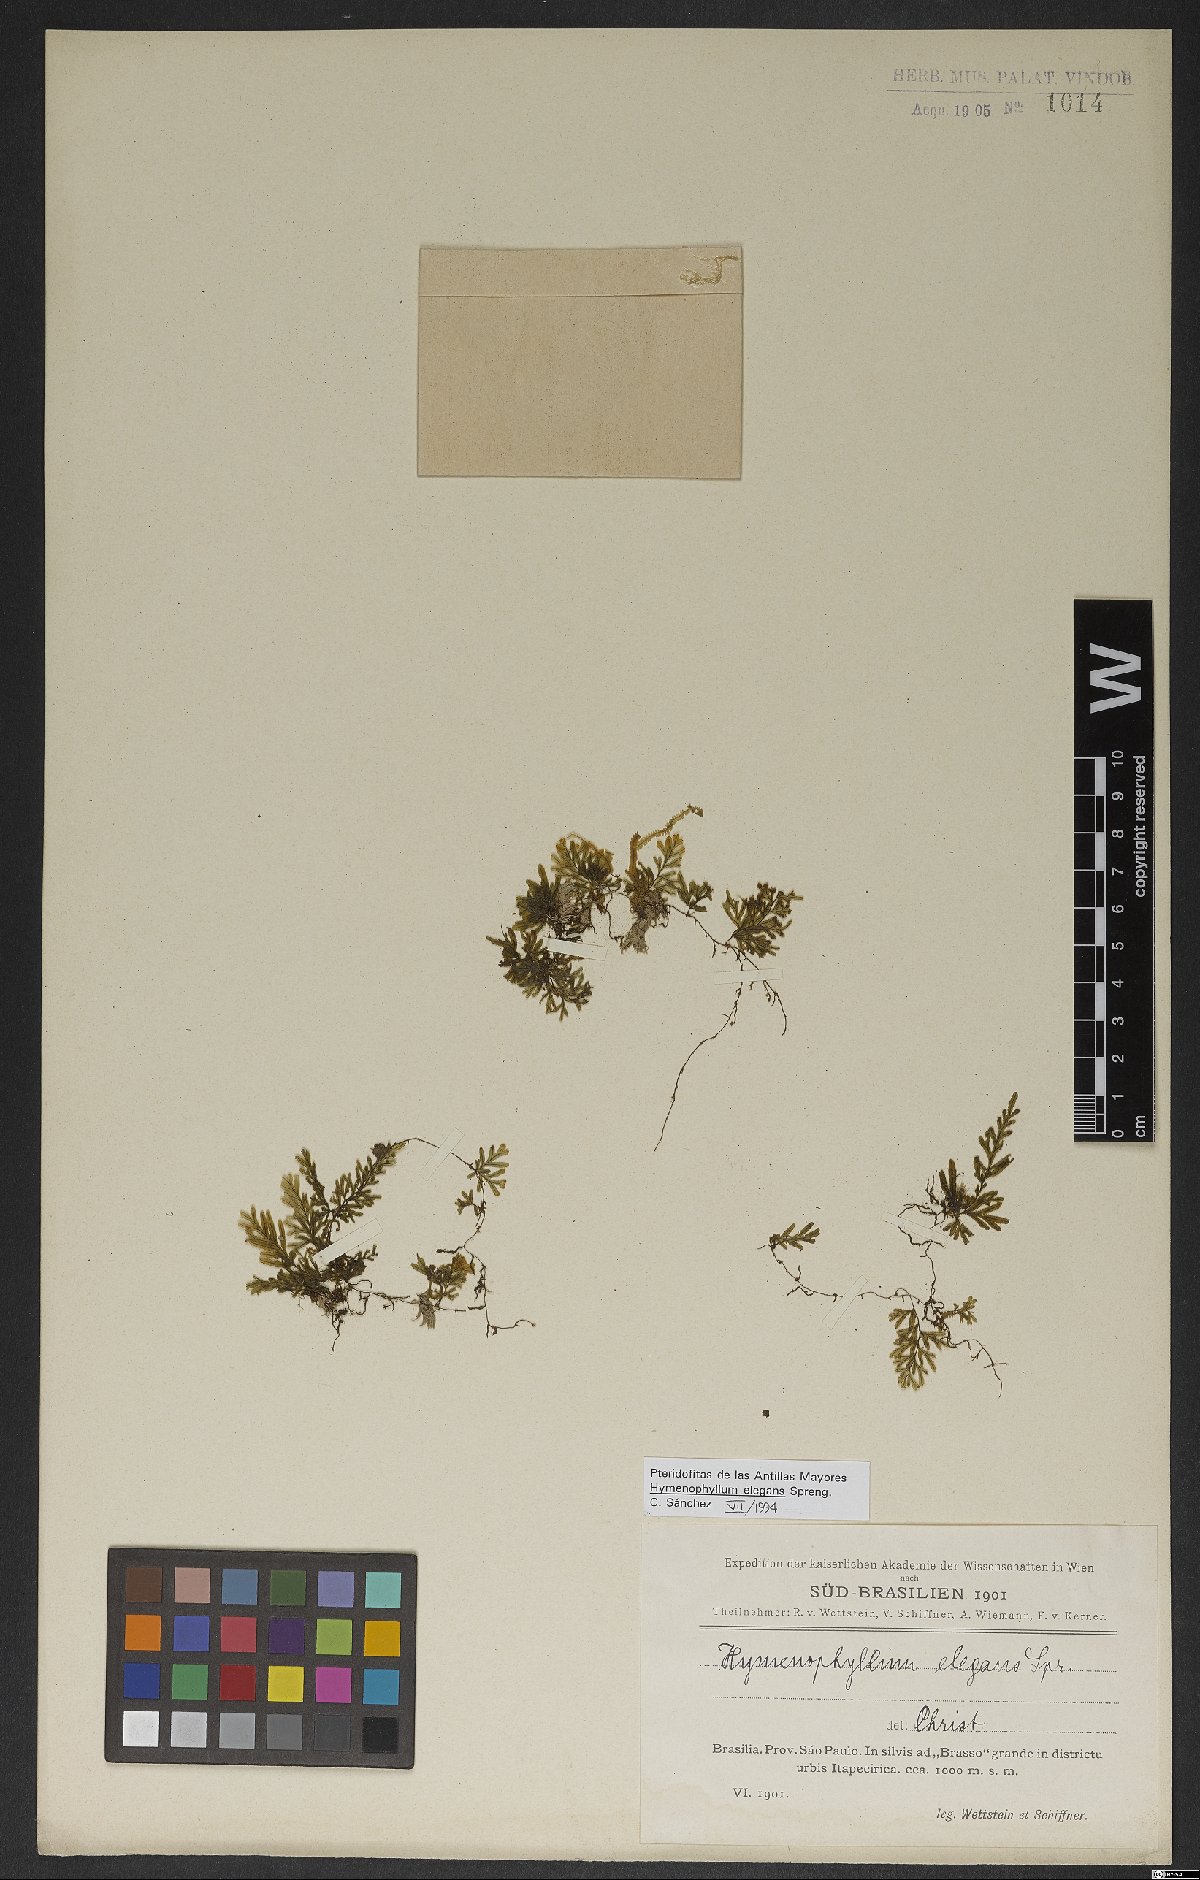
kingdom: Plantae
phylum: Tracheophyta
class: Polypodiopsida
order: Hymenophyllales
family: Hymenophyllaceae
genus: Hymenophyllum
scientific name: Hymenophyllum elegans
